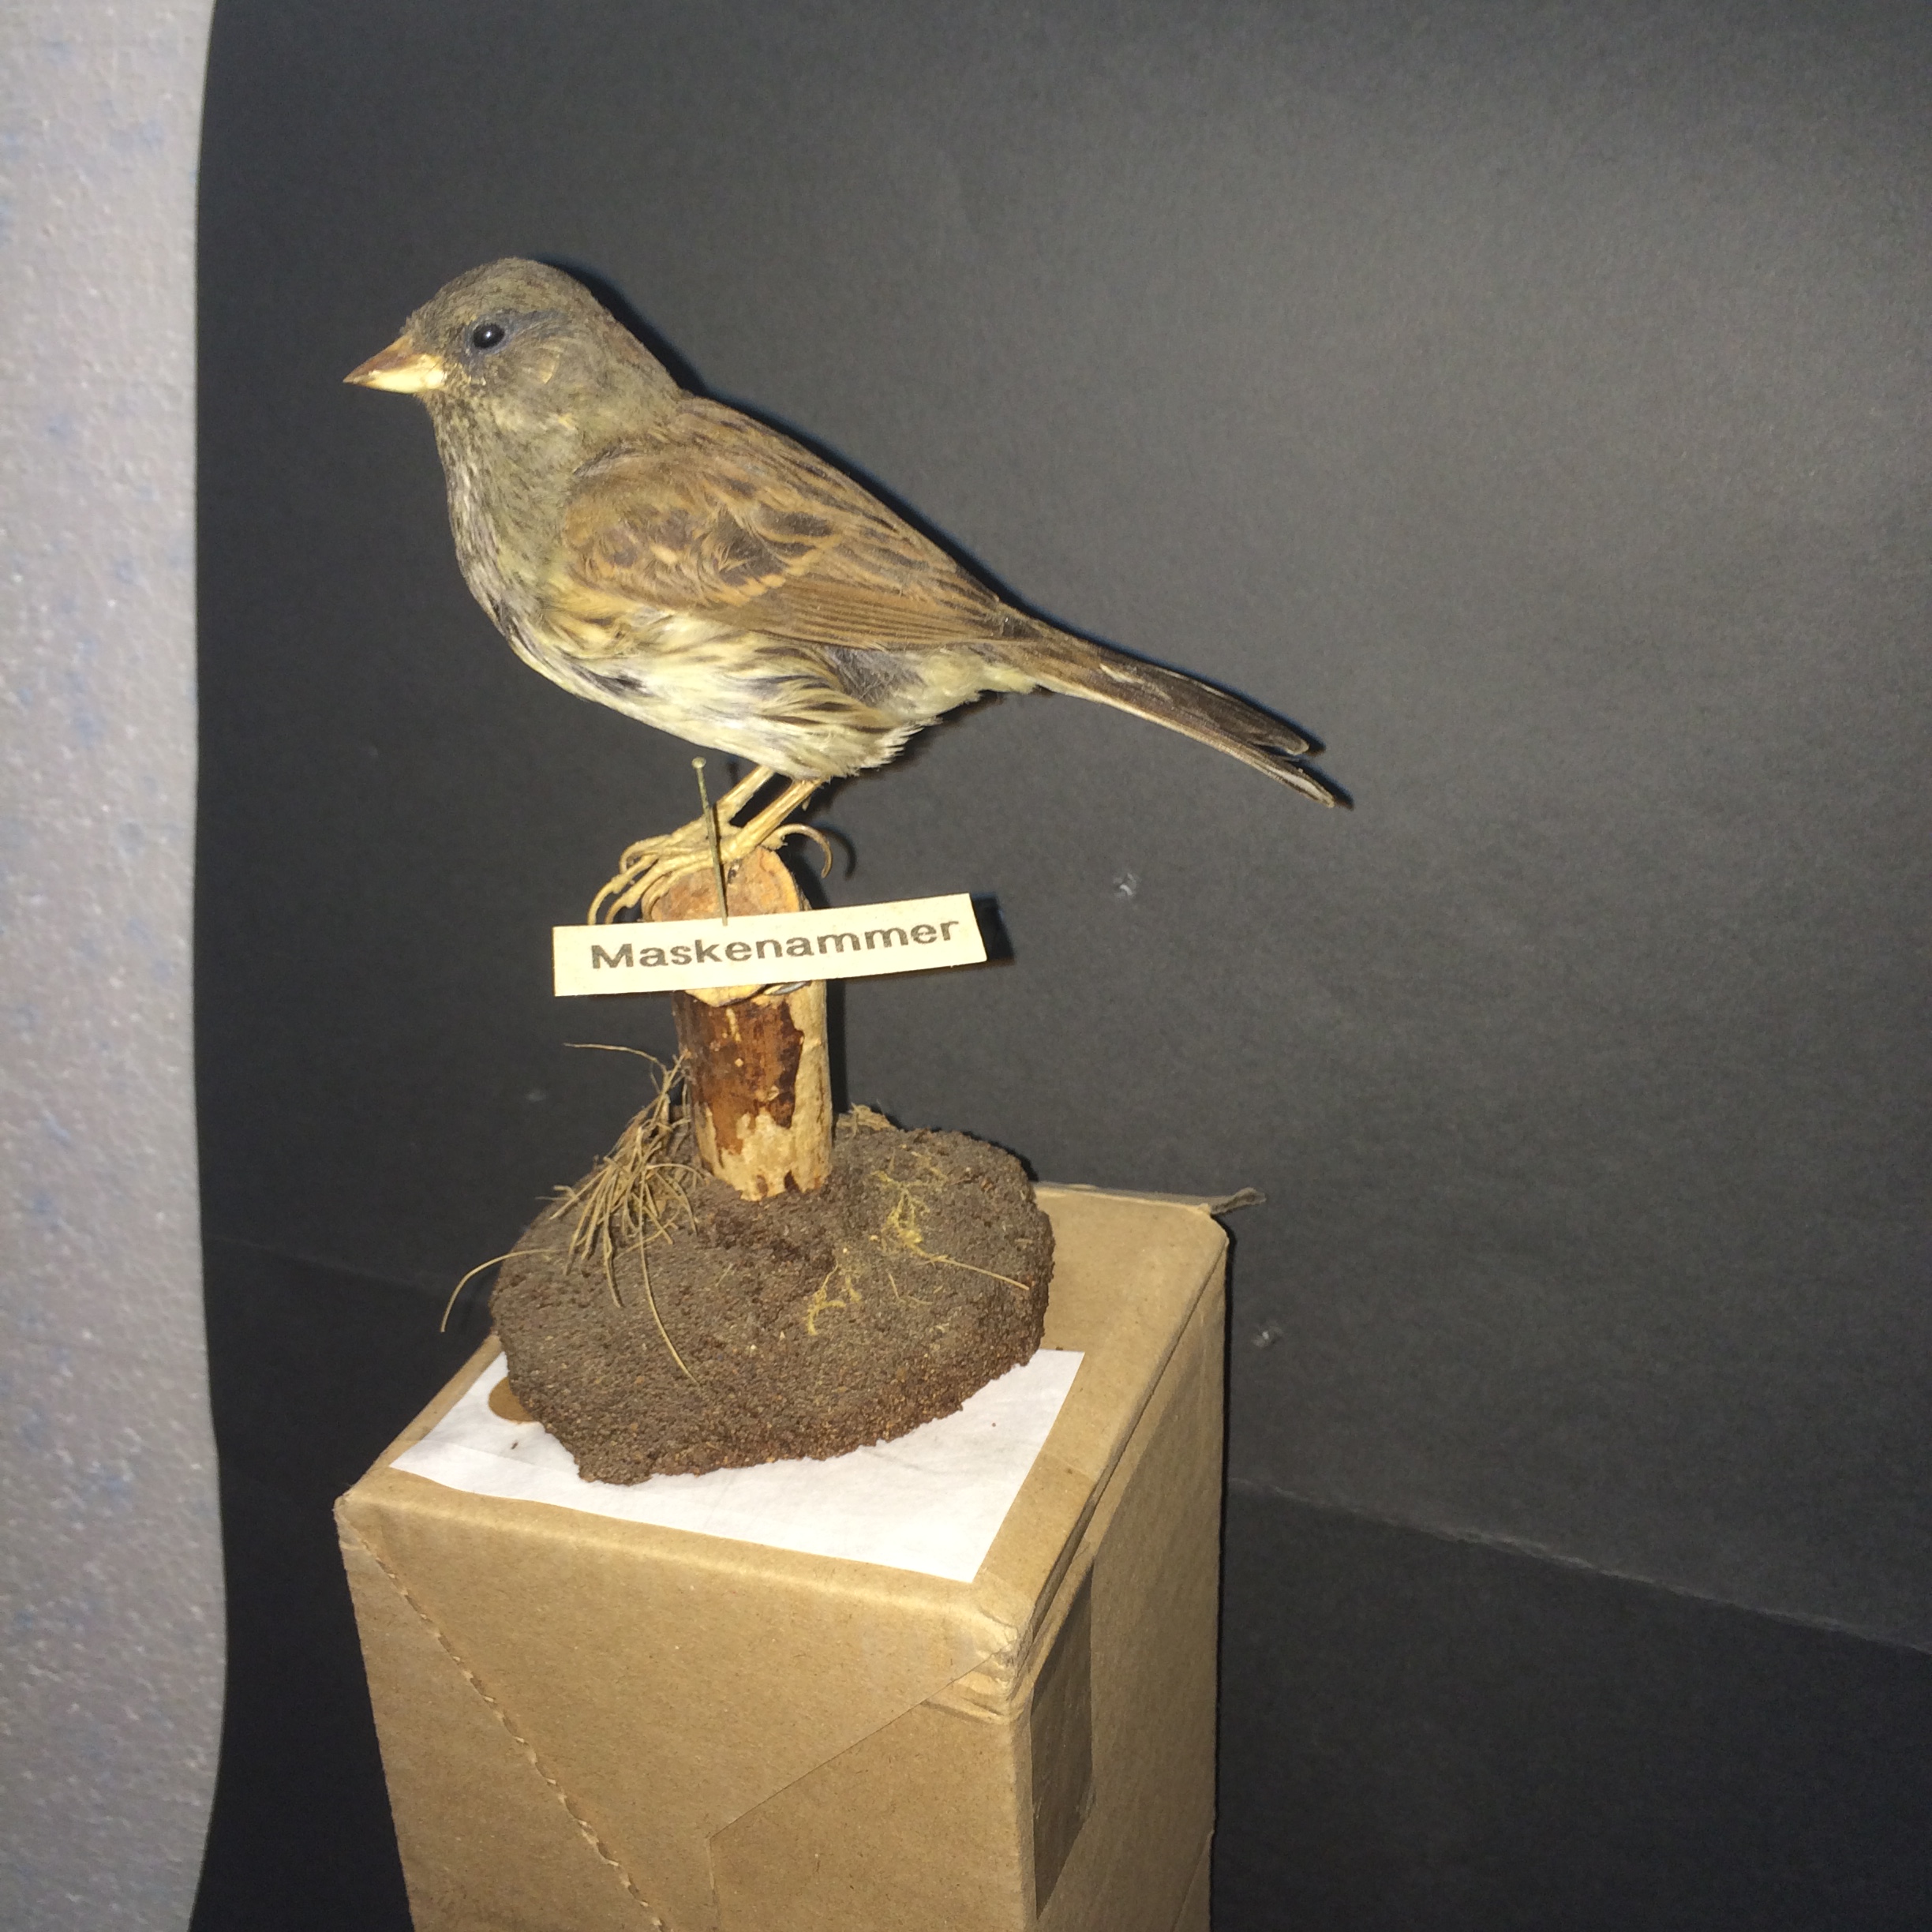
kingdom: Animalia
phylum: Chordata
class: Aves
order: Passeriformes
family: Emberizidae
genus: Emberiza
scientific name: Emberiza spodocephala
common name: Black-faced bunting
